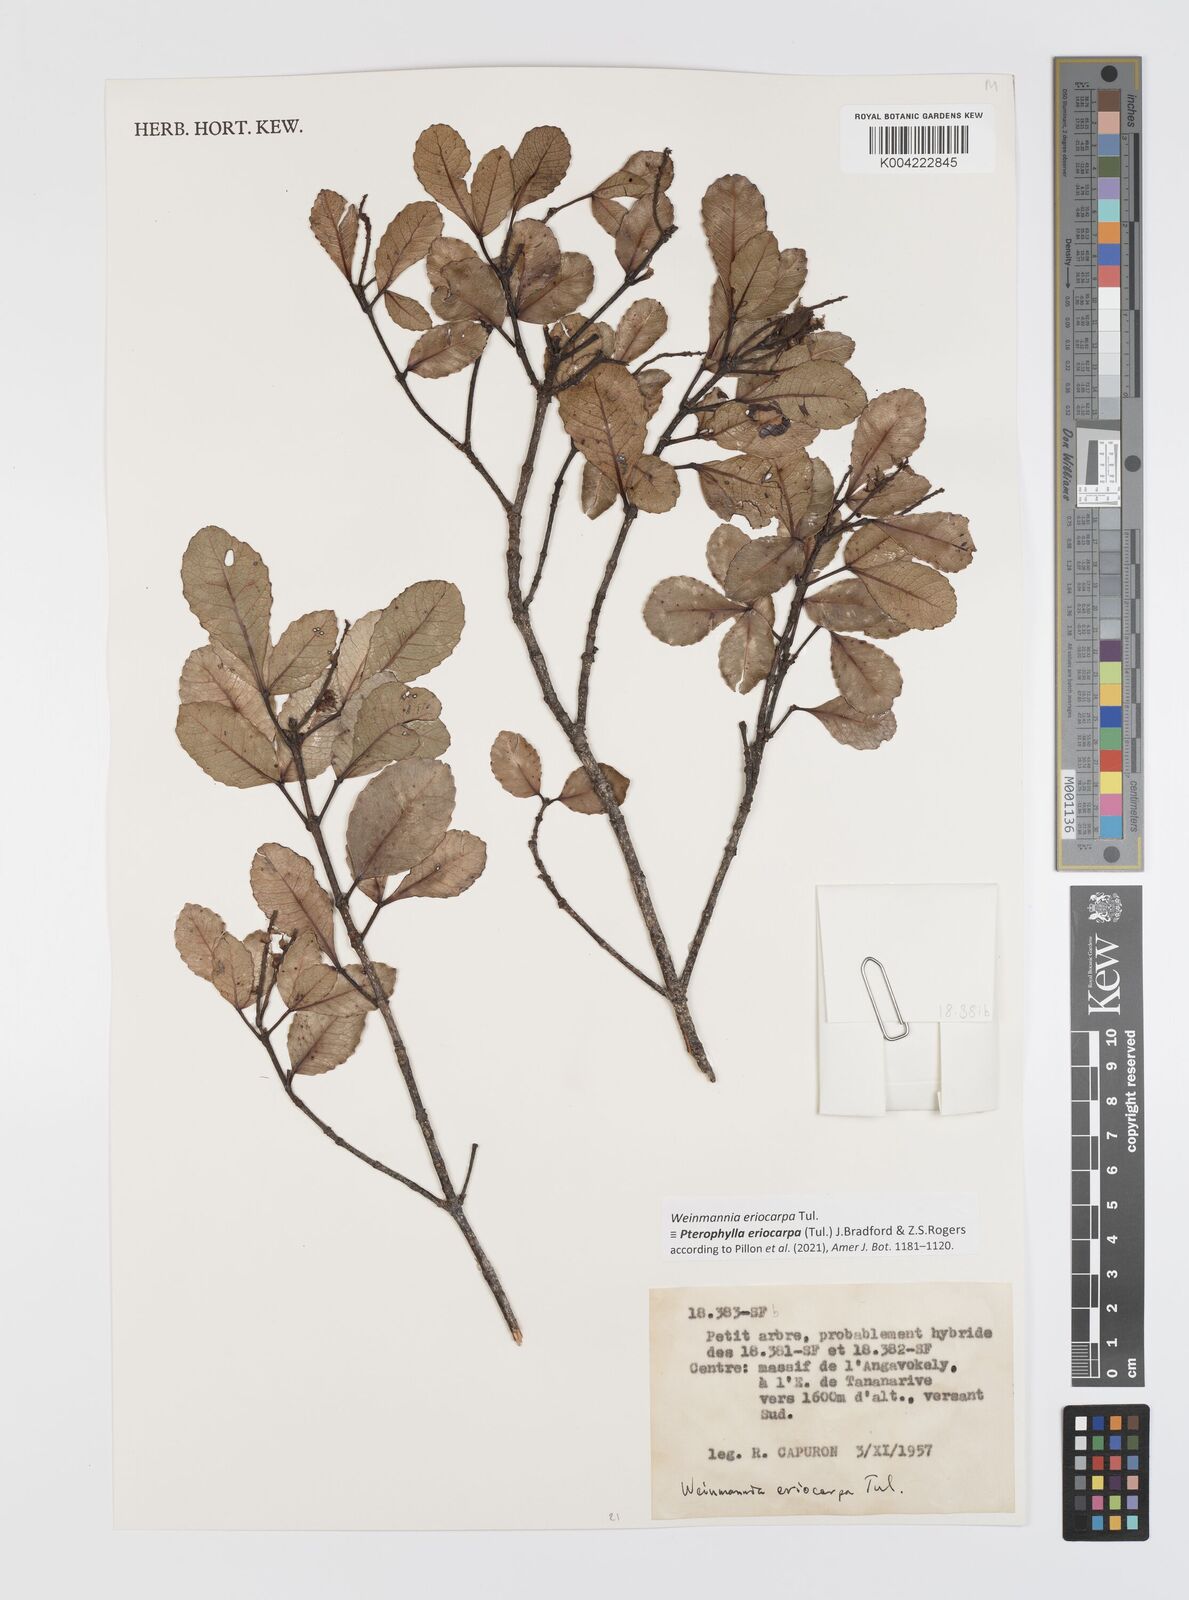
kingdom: Plantae
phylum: Tracheophyta
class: Magnoliopsida
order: Oxalidales
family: Cunoniaceae
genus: Pterophylla
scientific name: Pterophylla eriocarpa
